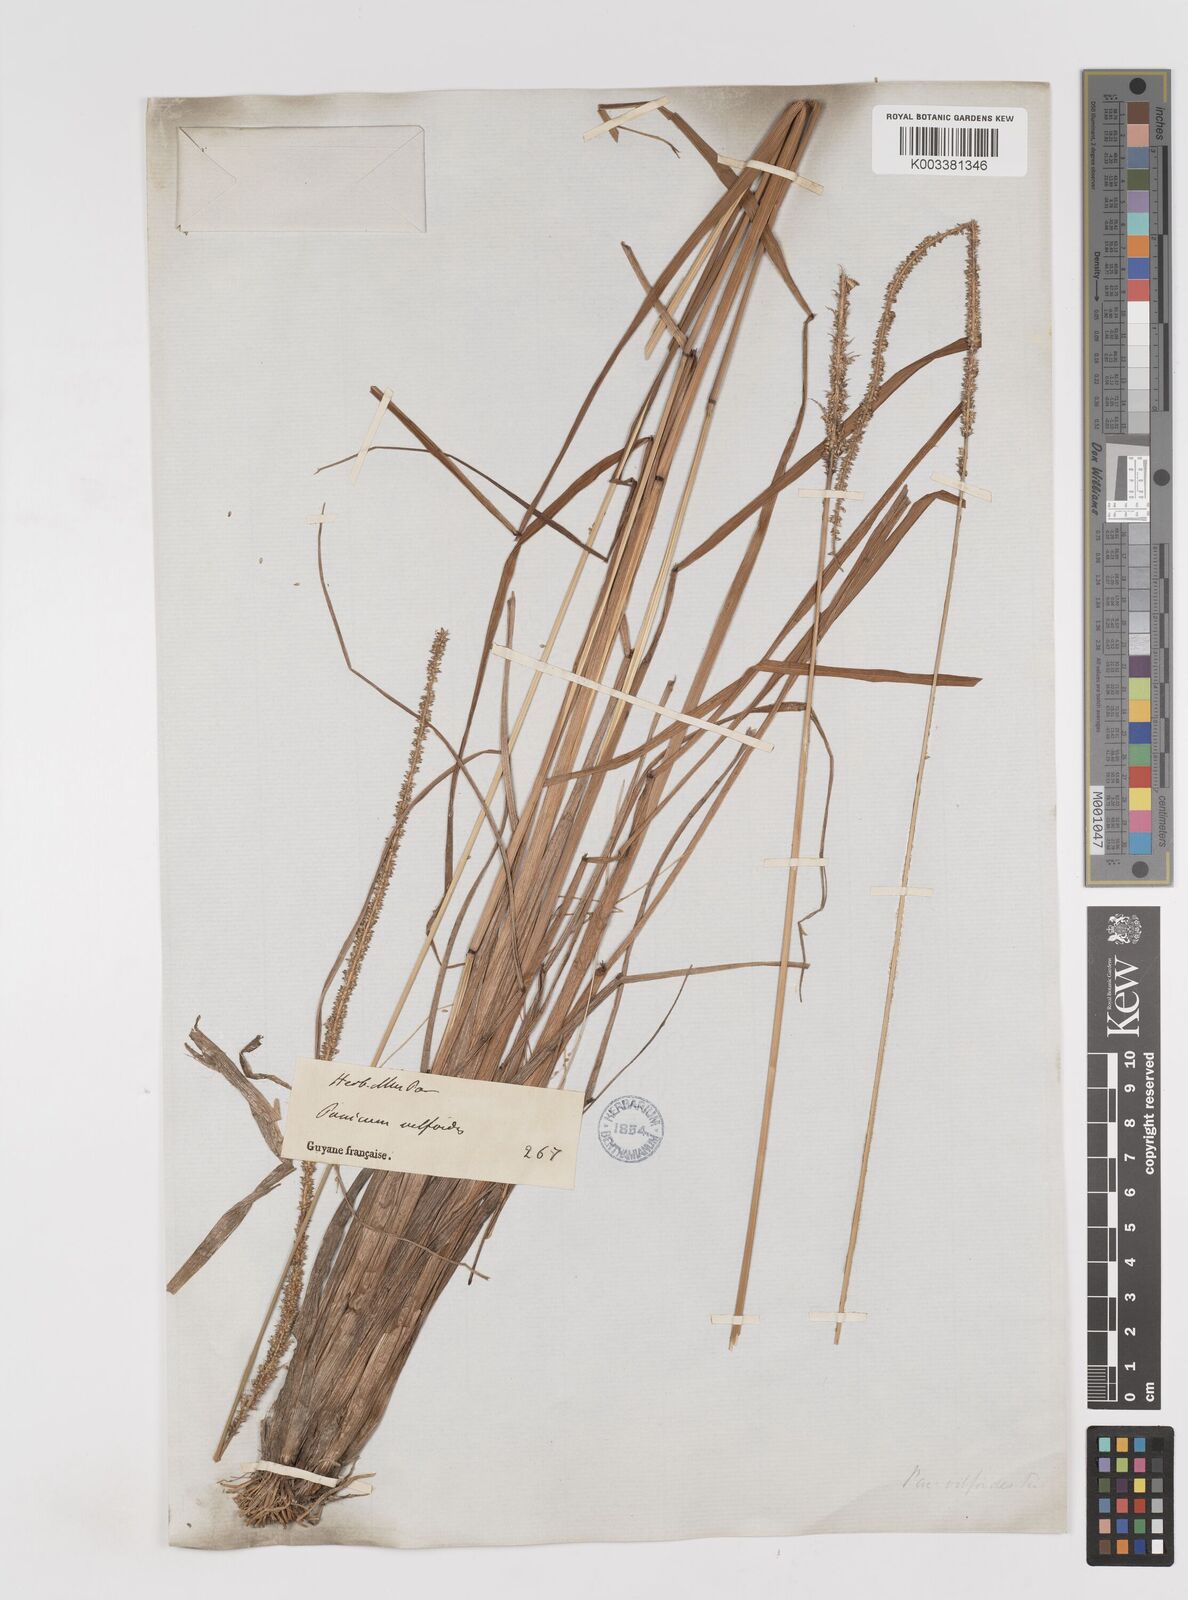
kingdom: Plantae
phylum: Tracheophyta
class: Liliopsida
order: Poales
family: Poaceae
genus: Sacciolepis
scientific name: Sacciolepis myuros
